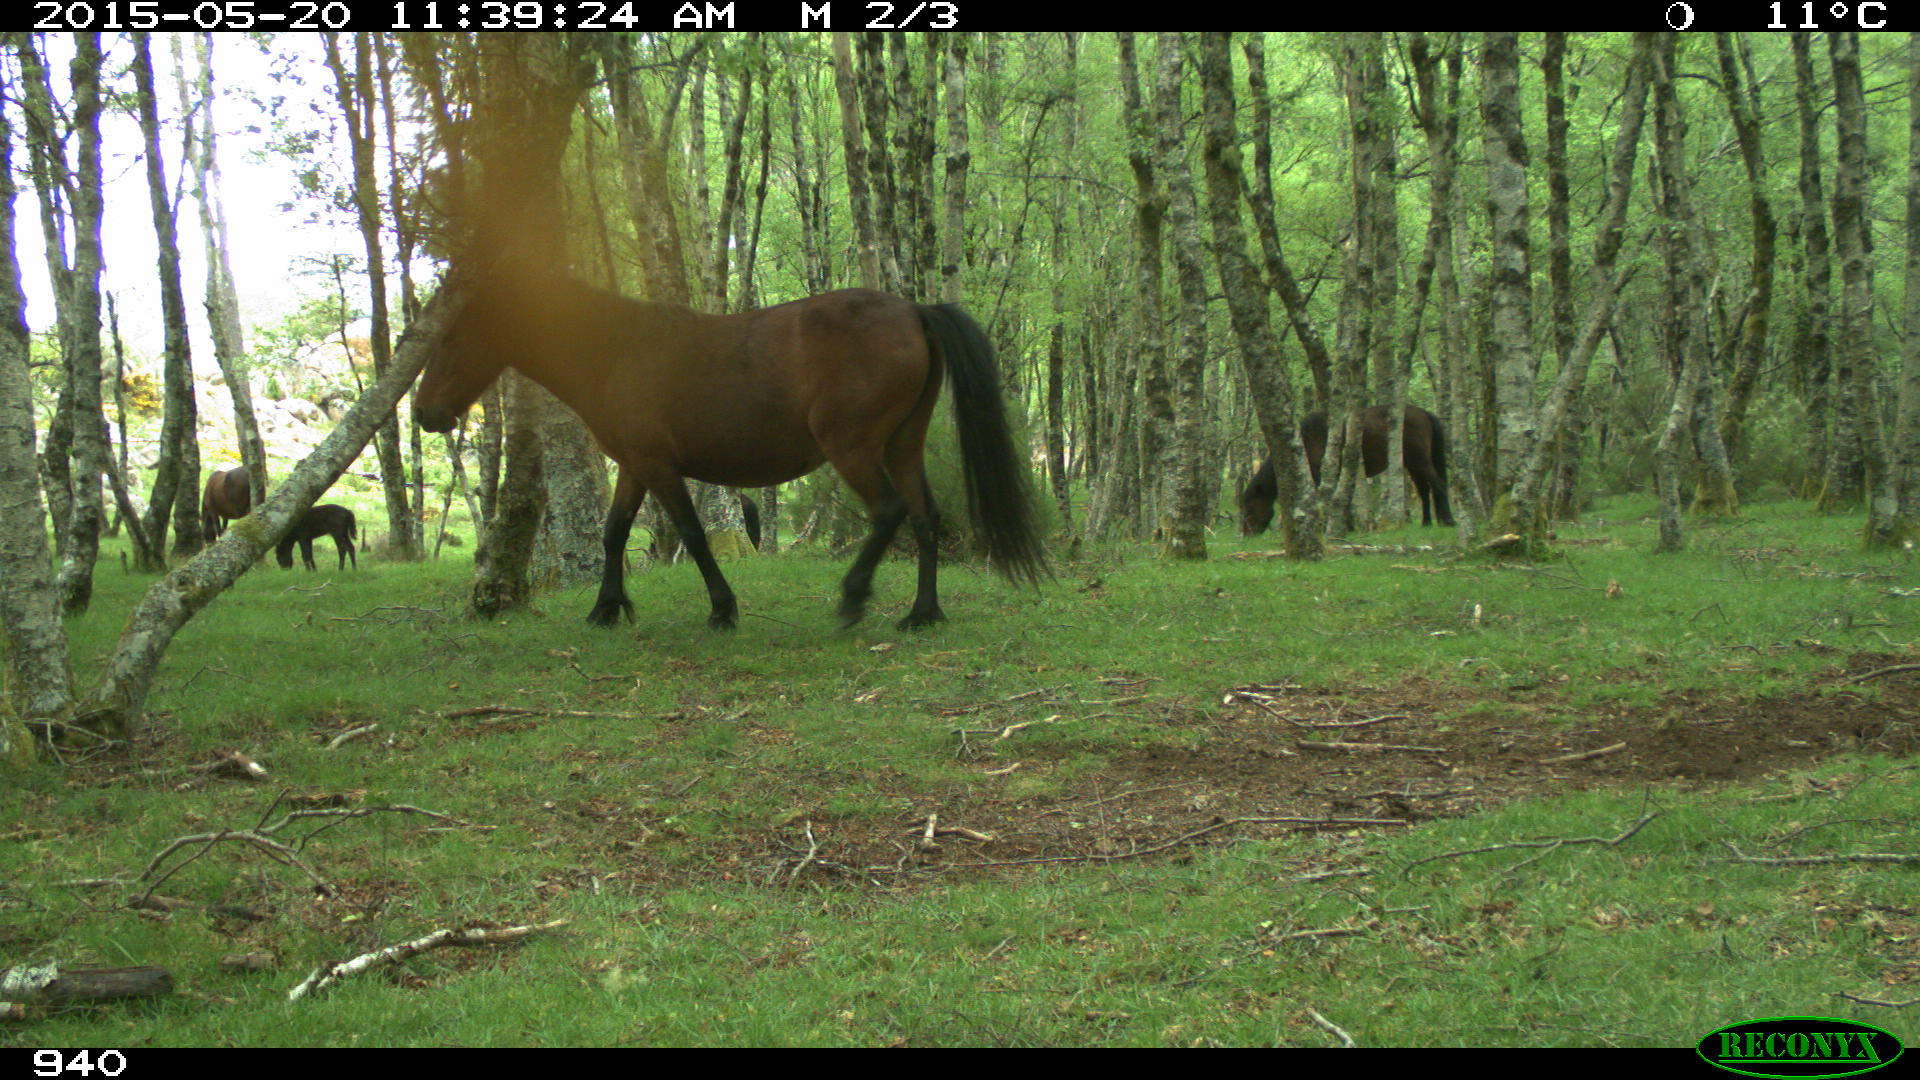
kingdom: Animalia
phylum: Chordata
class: Mammalia
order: Perissodactyla
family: Equidae
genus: Equus
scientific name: Equus caballus
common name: Horse
